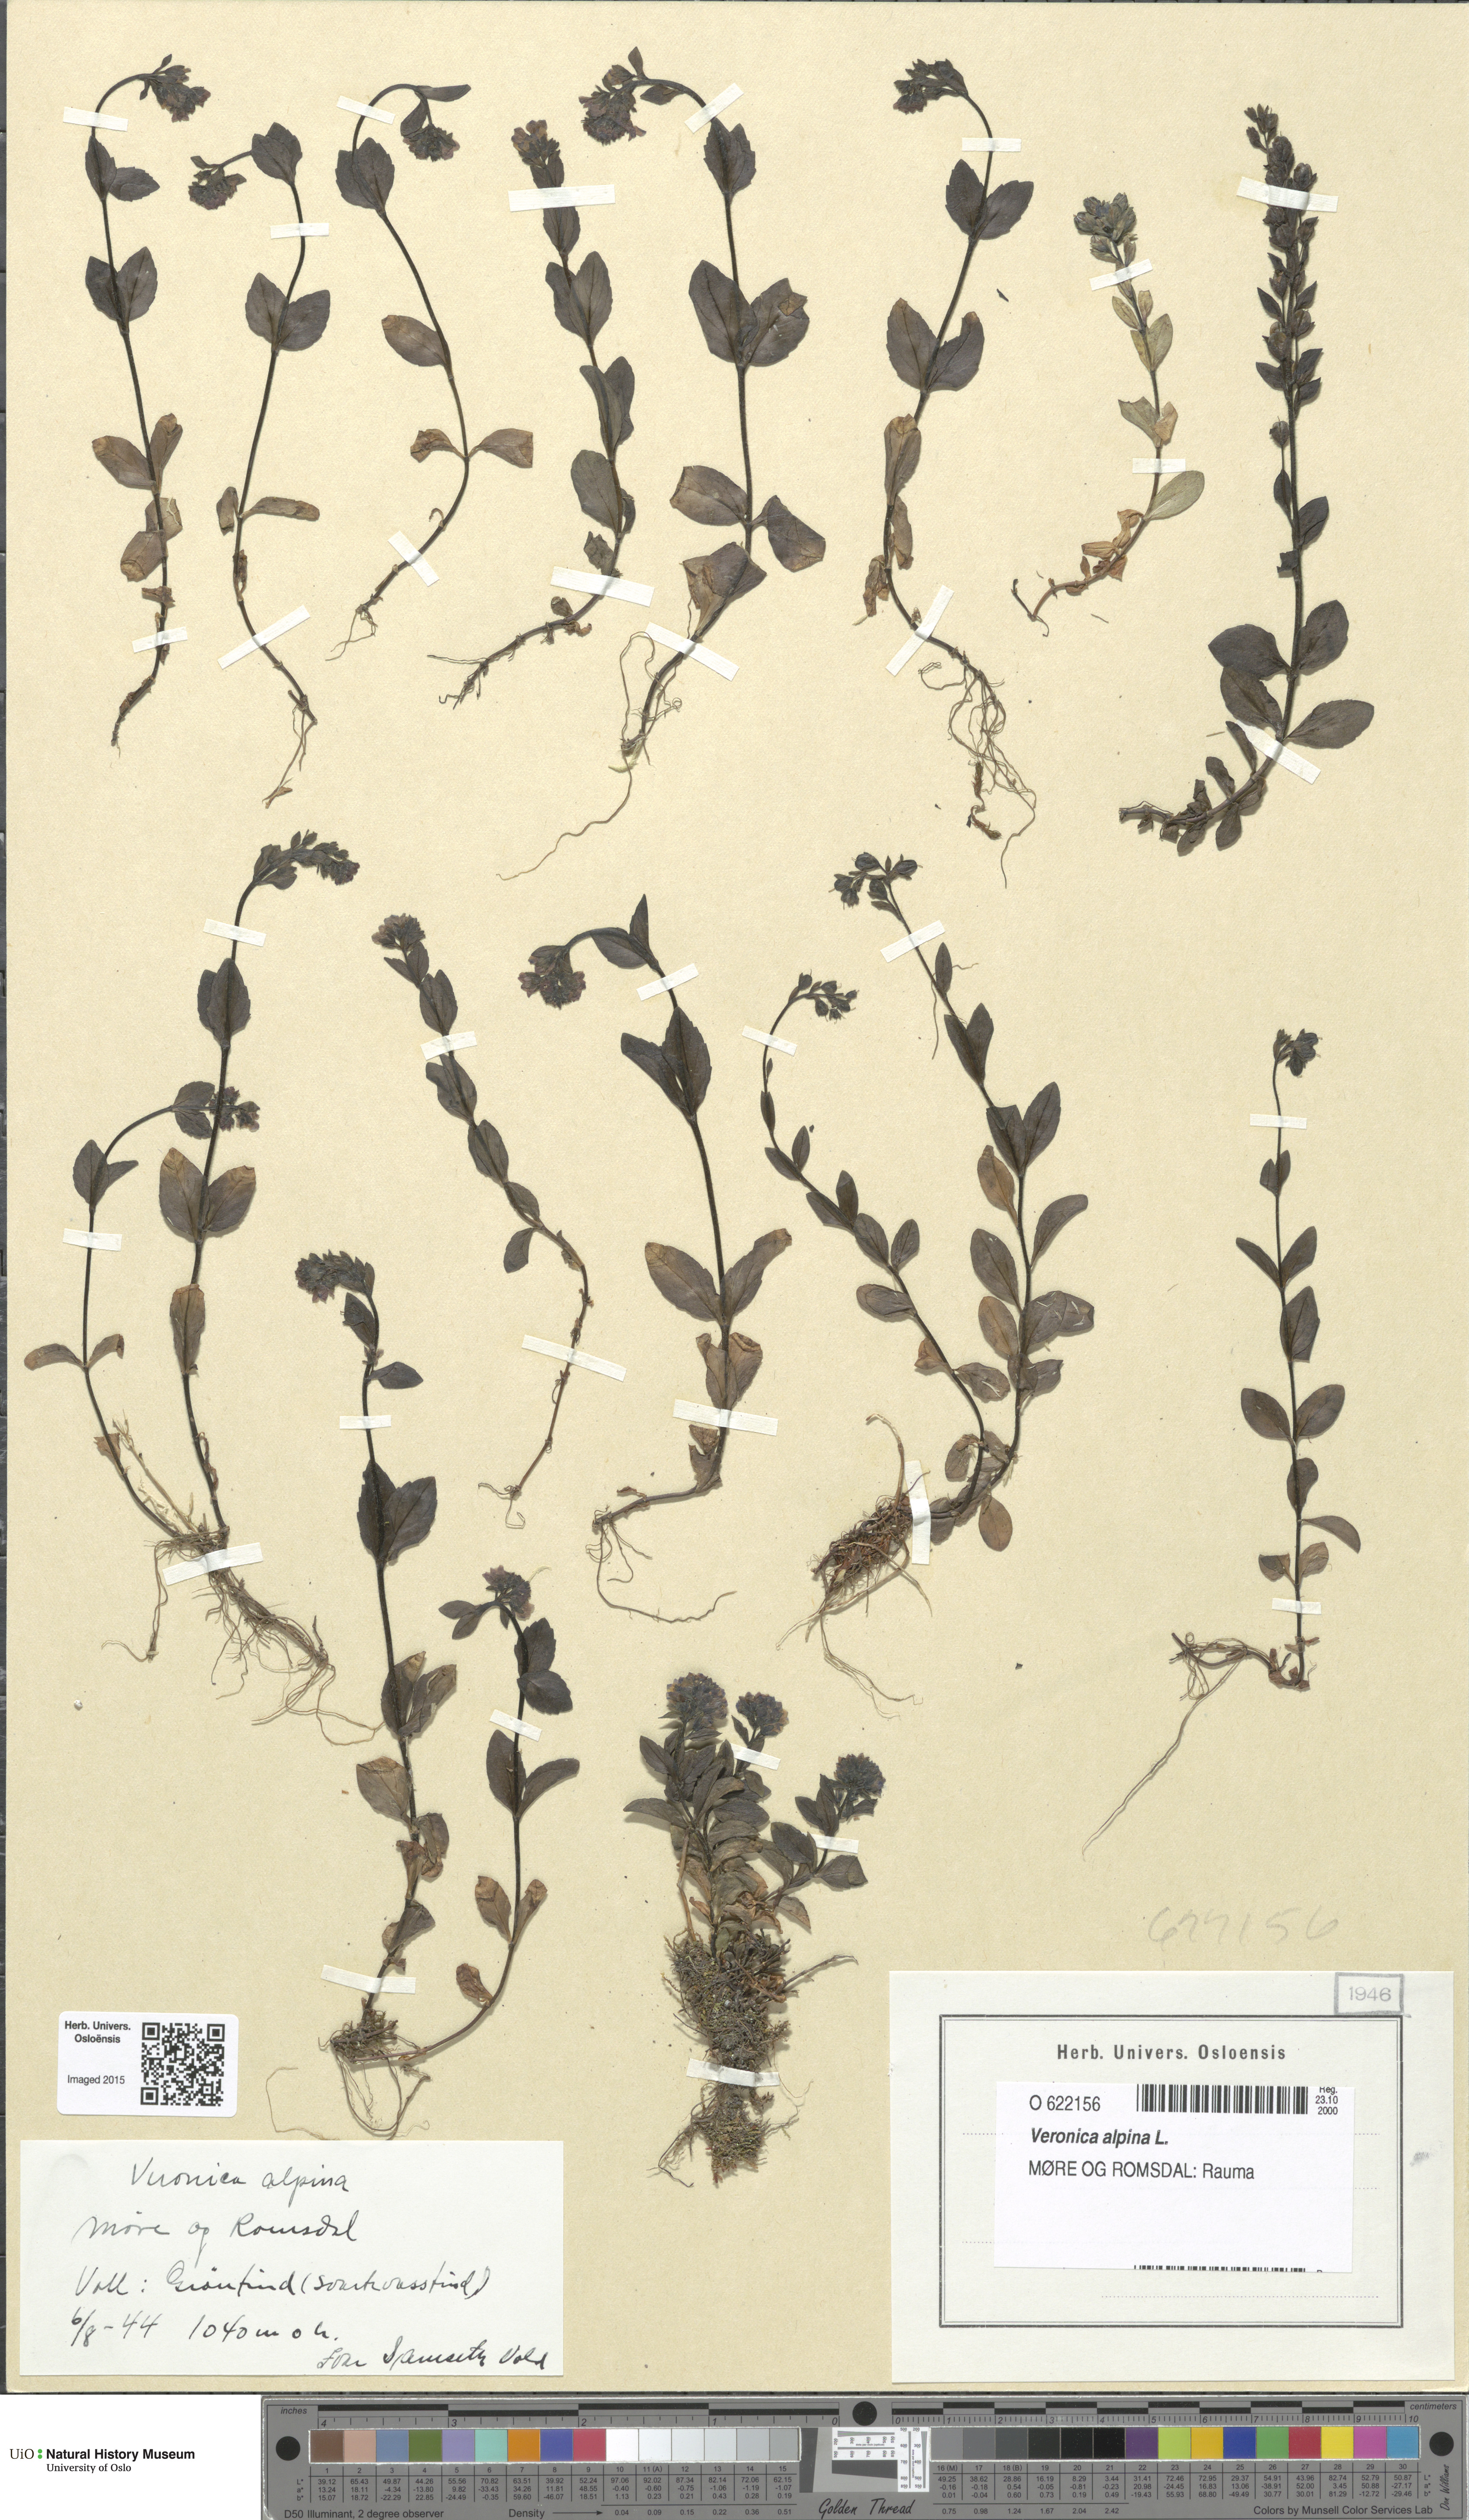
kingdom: Plantae
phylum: Tracheophyta
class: Magnoliopsida
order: Lamiales
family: Plantaginaceae
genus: Veronica
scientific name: Veronica alpina
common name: Alpine speedwell
